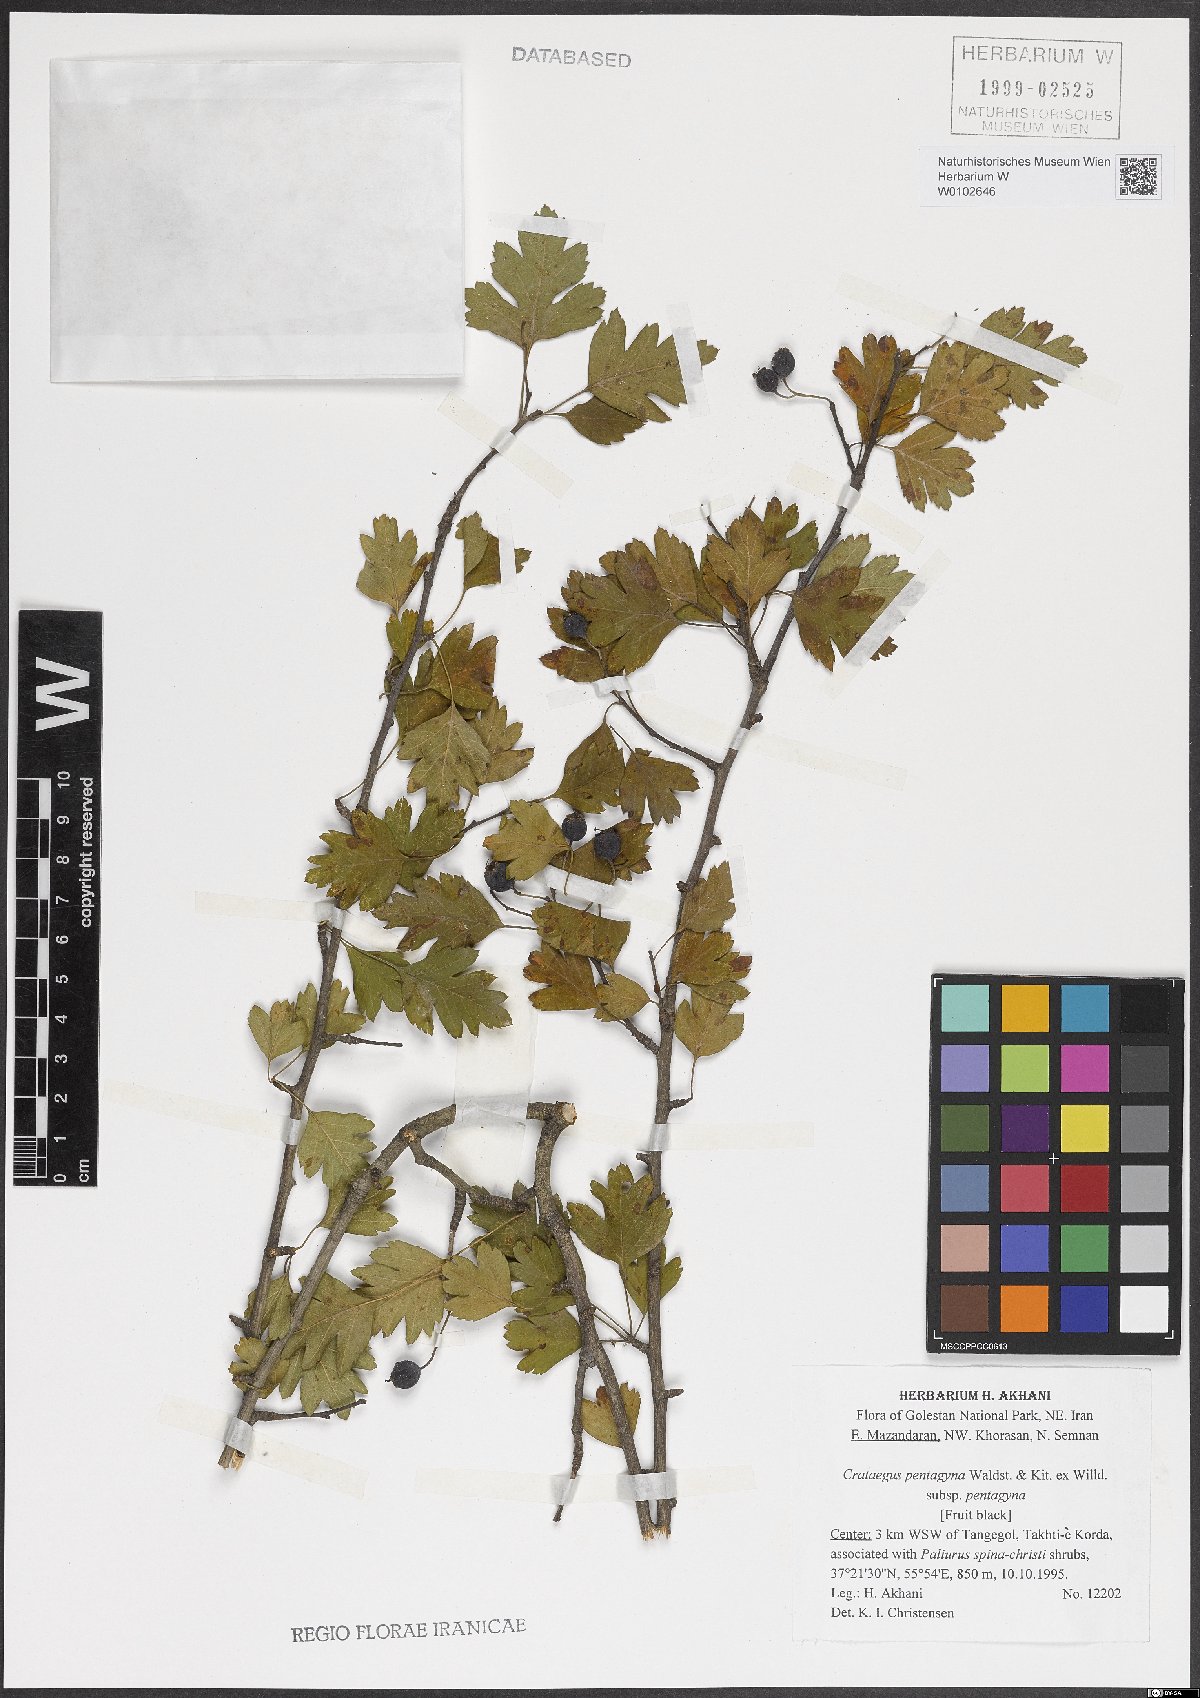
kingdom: Plantae
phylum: Tracheophyta
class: Magnoliopsida
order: Rosales
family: Rosaceae
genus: Crataegus
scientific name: Crataegus pentagyna
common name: Small-flowered black hawthorn
